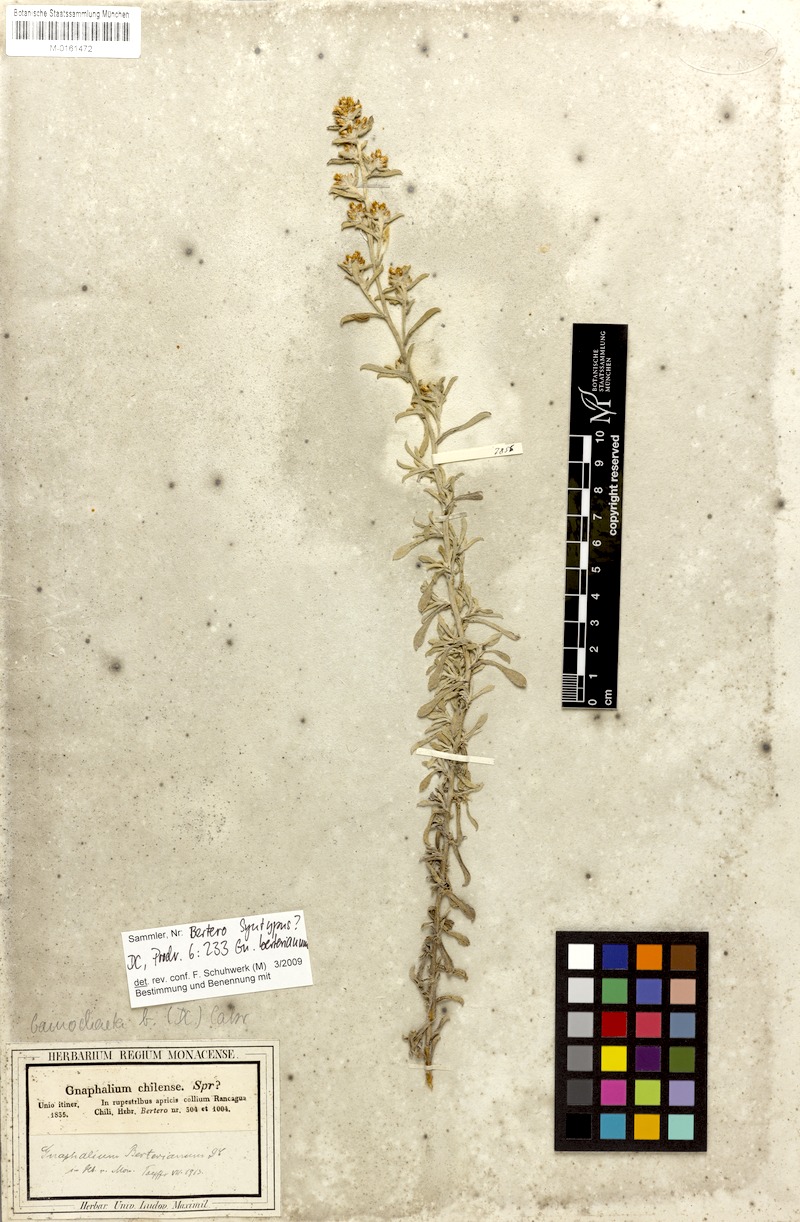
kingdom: Plantae
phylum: Tracheophyta
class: Magnoliopsida
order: Asterales
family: Asteraceae
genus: Gamochaeta
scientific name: Gamochaeta filaginea
